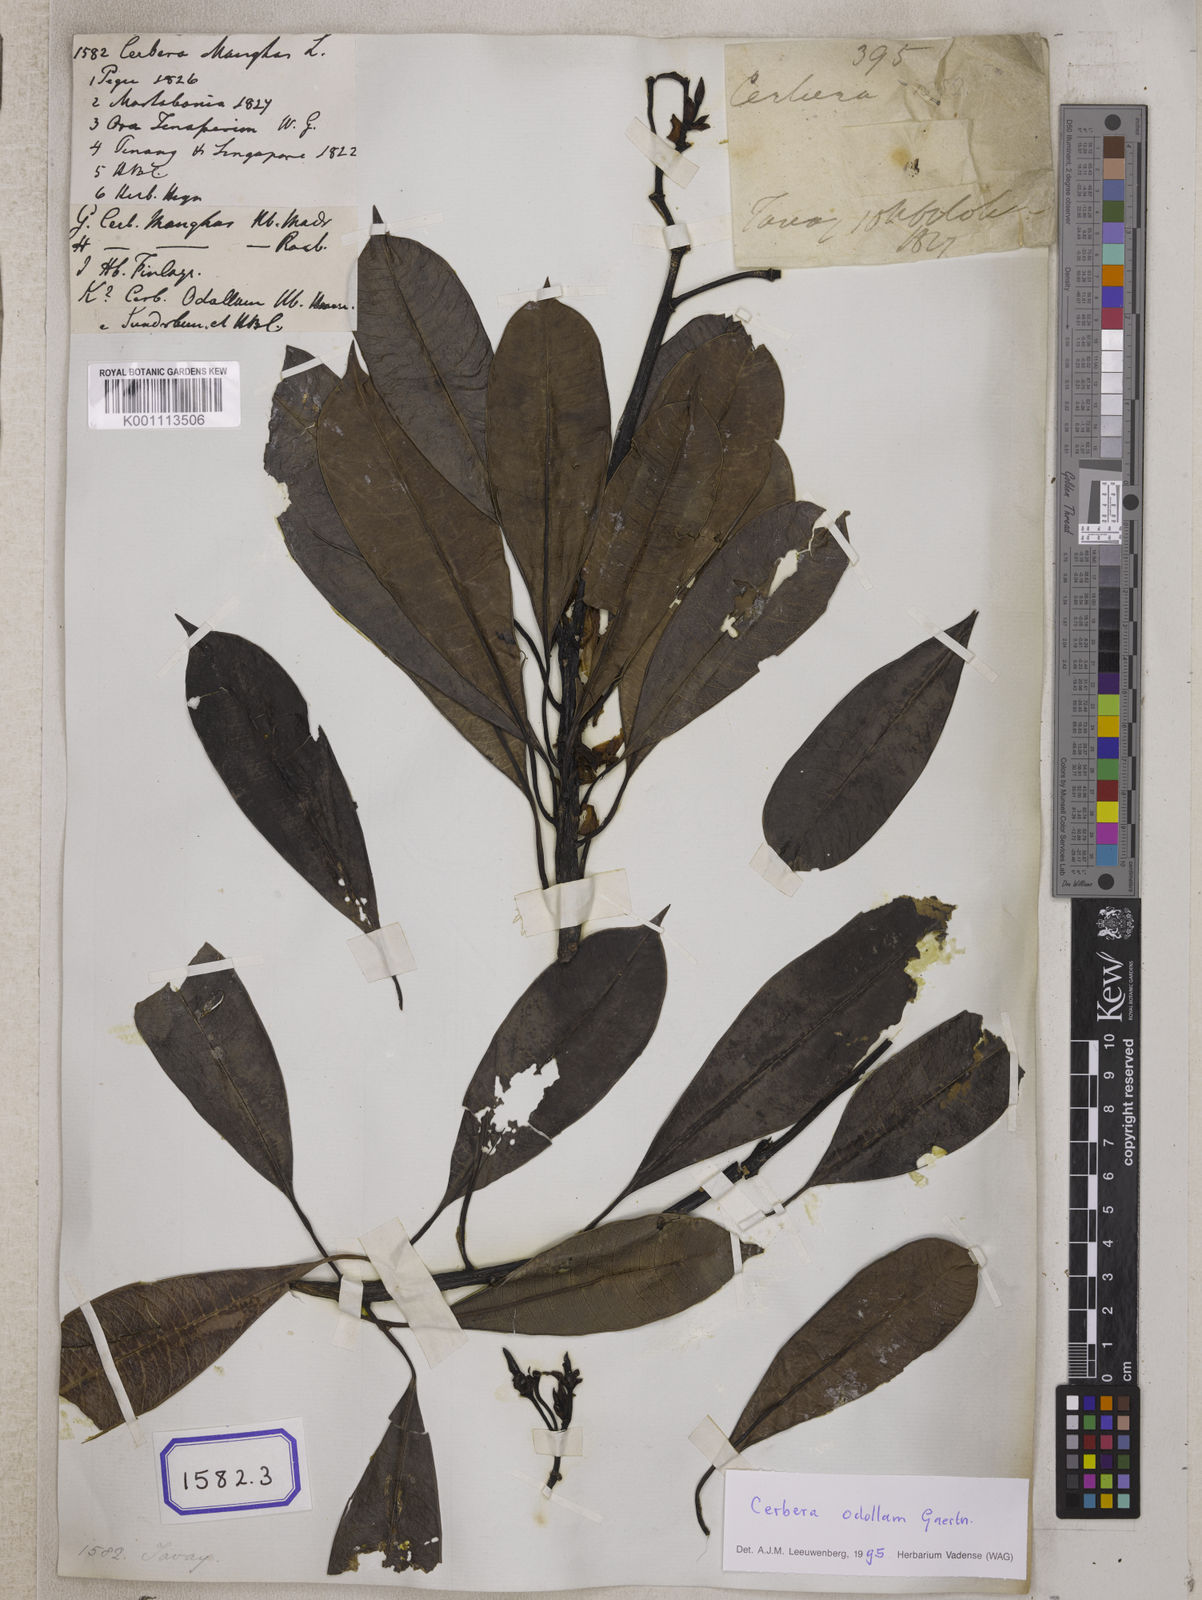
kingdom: Plantae
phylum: Tracheophyta
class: Magnoliopsida
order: Gentianales
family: Apocynaceae
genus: Cerbera
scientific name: Cerbera manghas
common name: Reva
